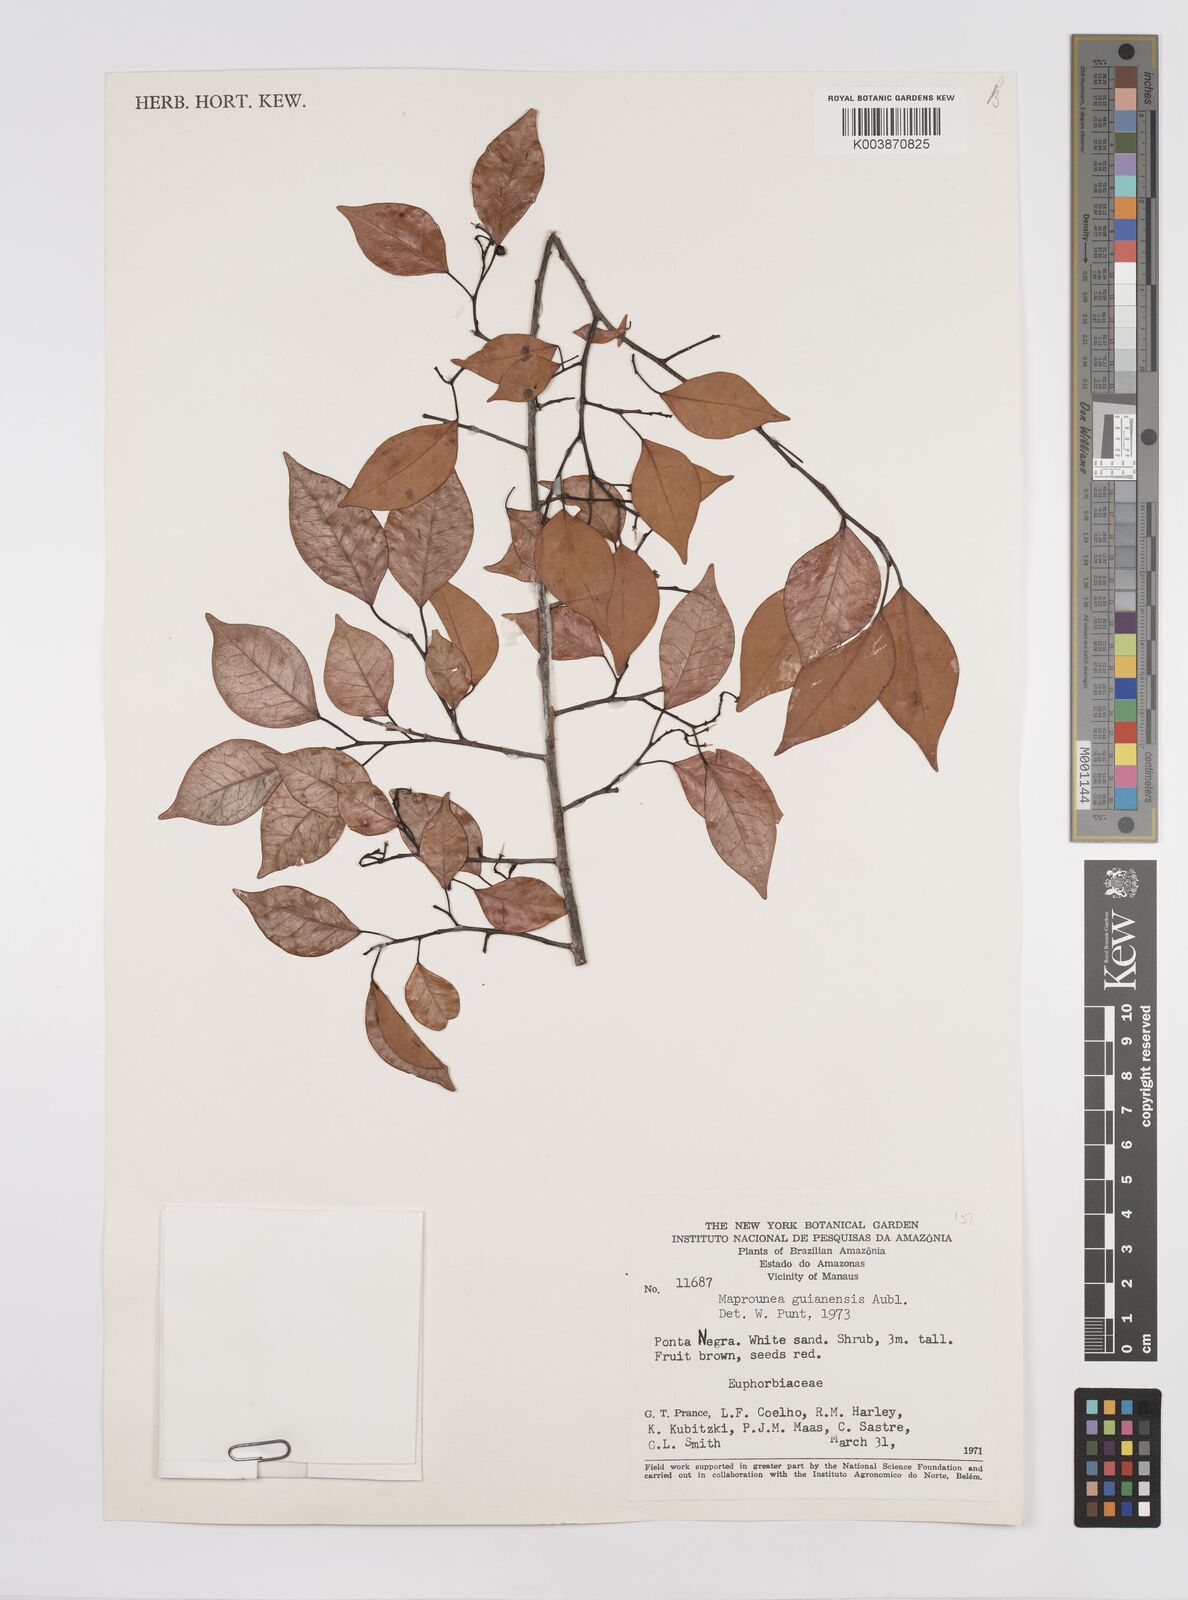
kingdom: Plantae
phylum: Tracheophyta
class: Magnoliopsida
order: Malpighiales
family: Euphorbiaceae
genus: Maprounea
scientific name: Maprounea guianensis
